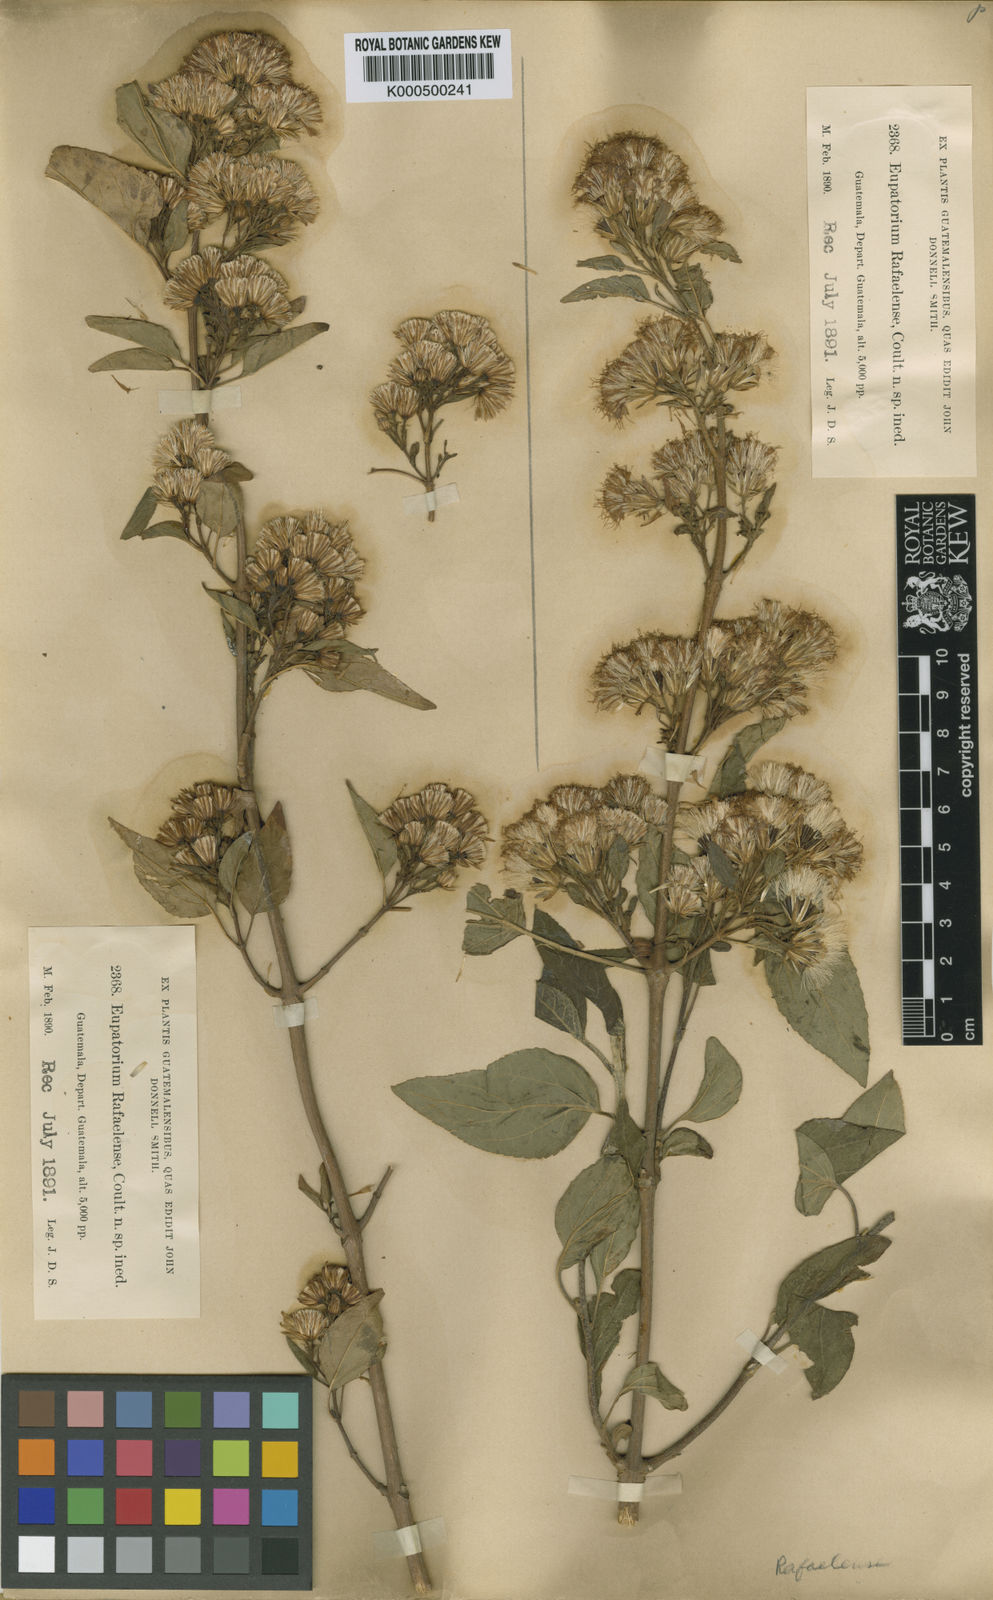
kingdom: Plantae
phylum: Tracheophyta
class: Magnoliopsida
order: Asterales
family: Asteraceae
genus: Ageratina
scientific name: Ageratina mairetiana
